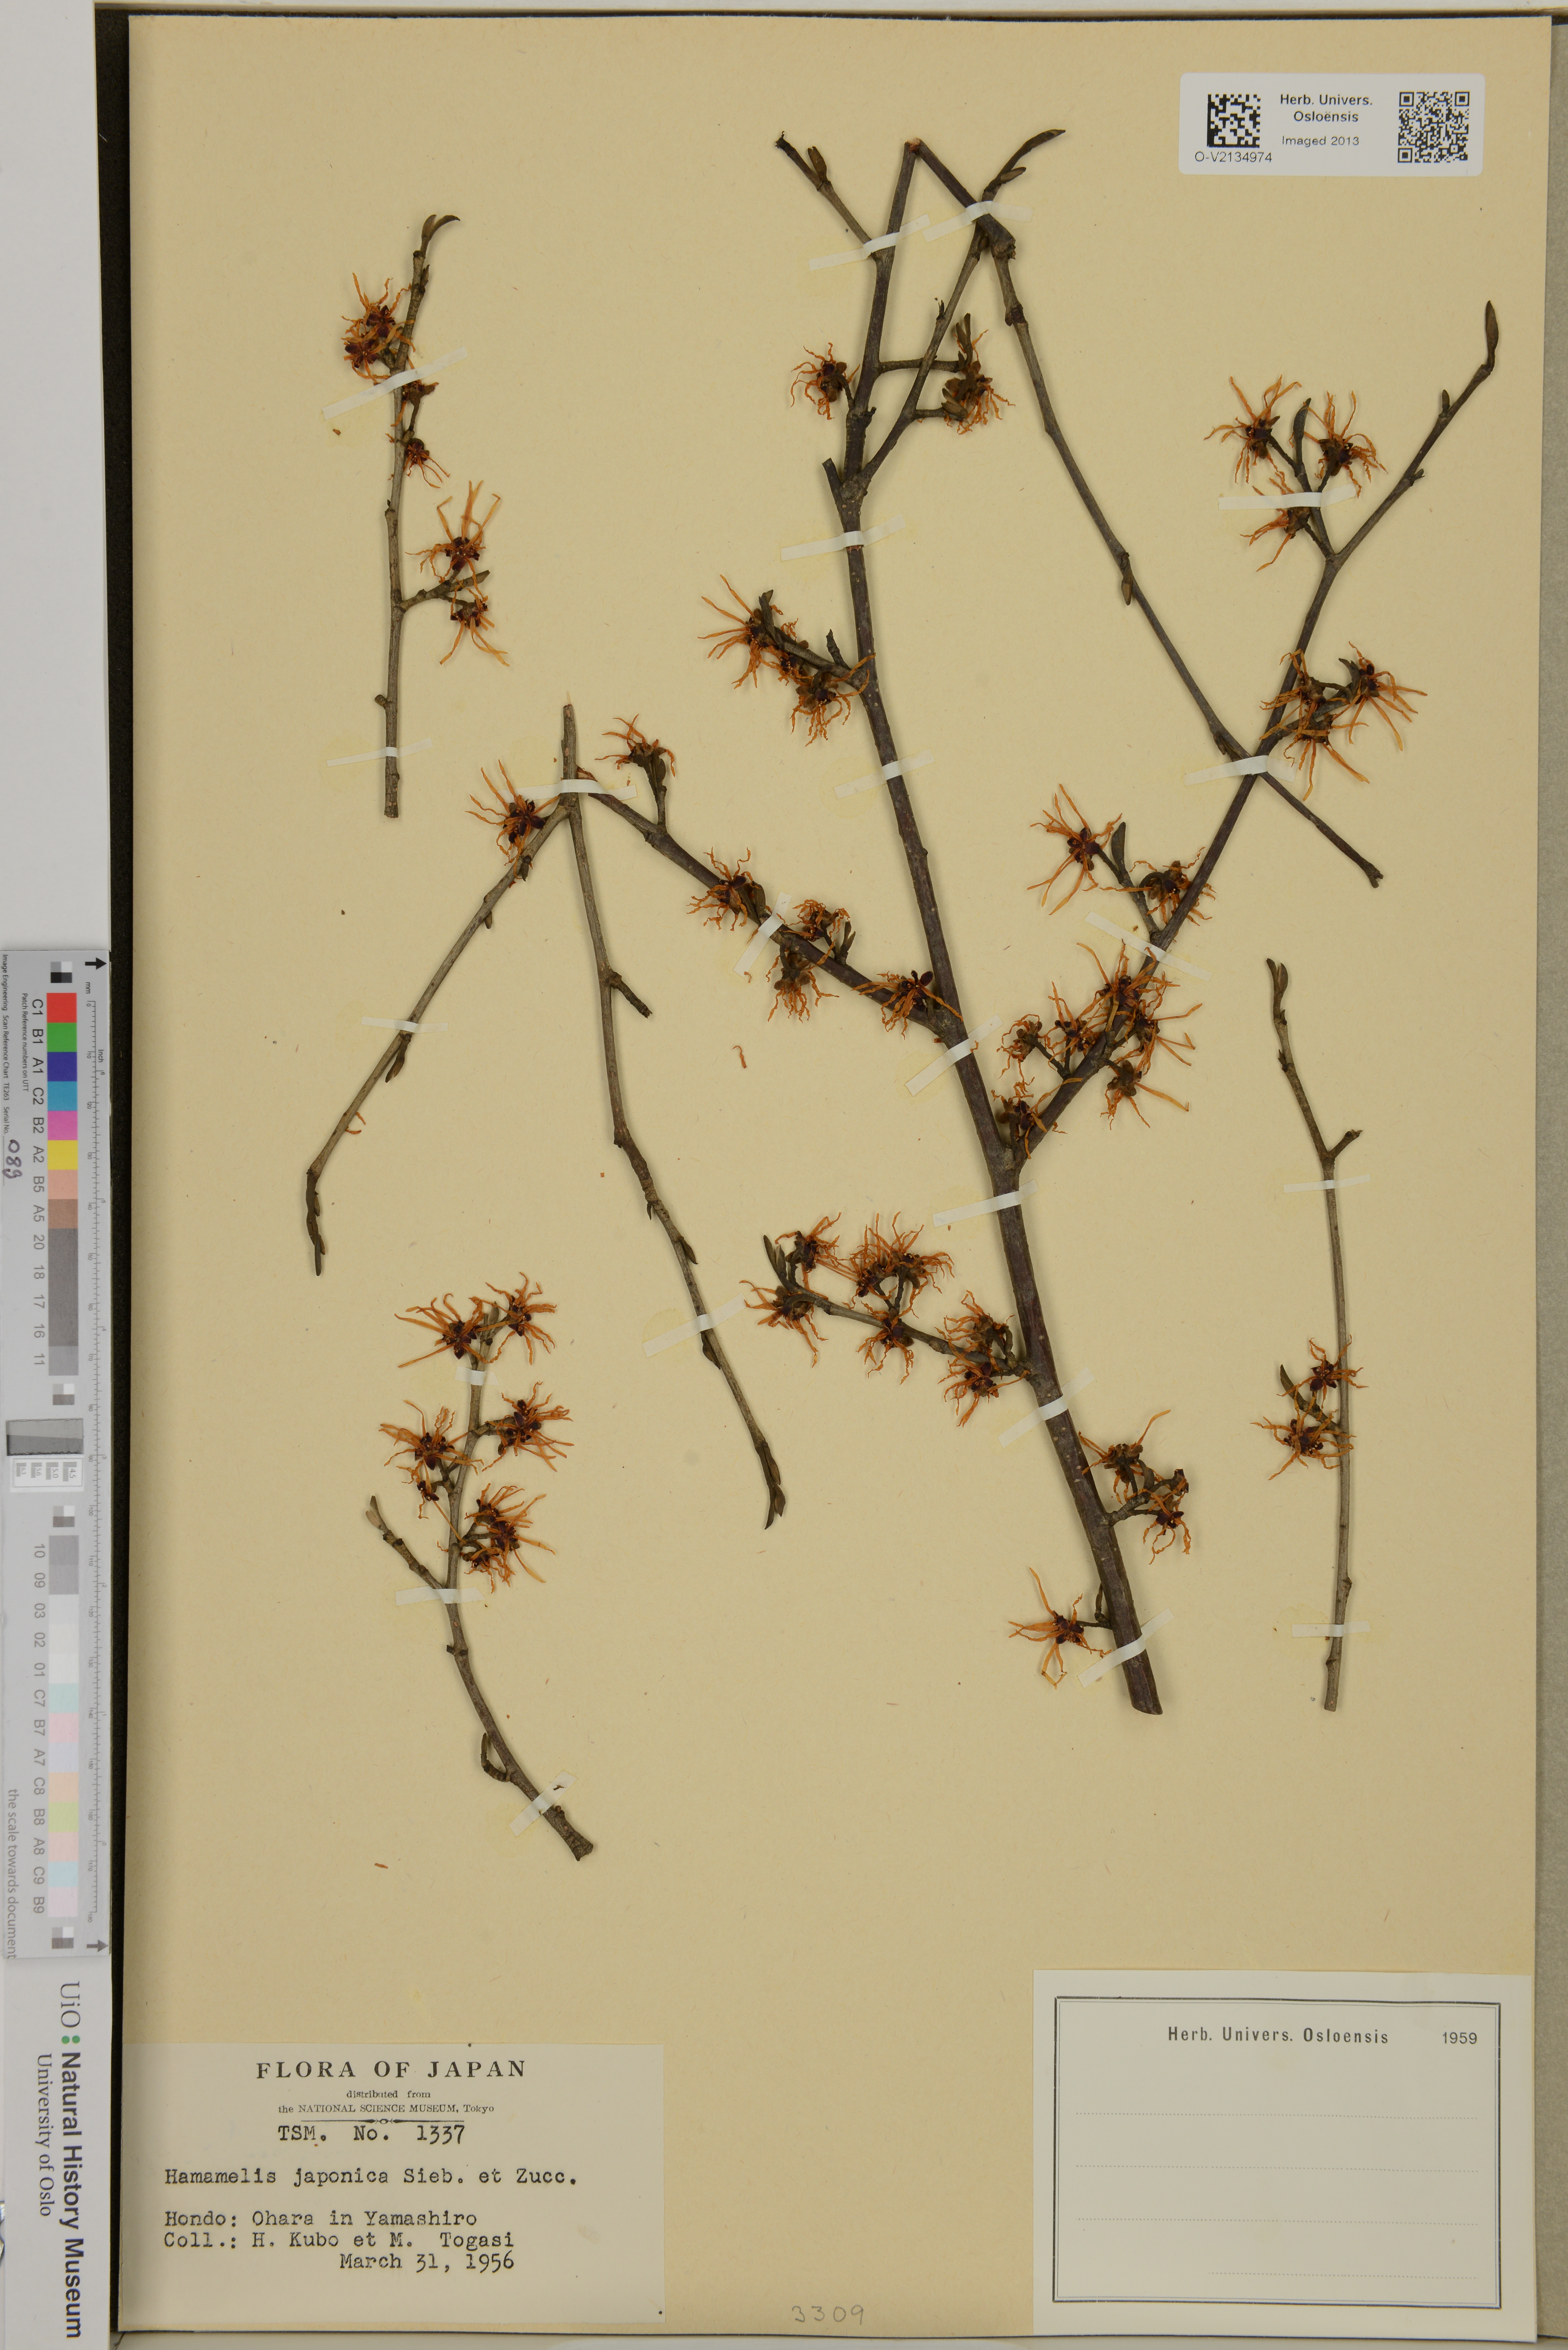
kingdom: Plantae
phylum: Tracheophyta
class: Magnoliopsida
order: Saxifragales
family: Hamamelidaceae
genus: Hamamelis
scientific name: Hamamelis japonica
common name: Japanese witch-hazel
